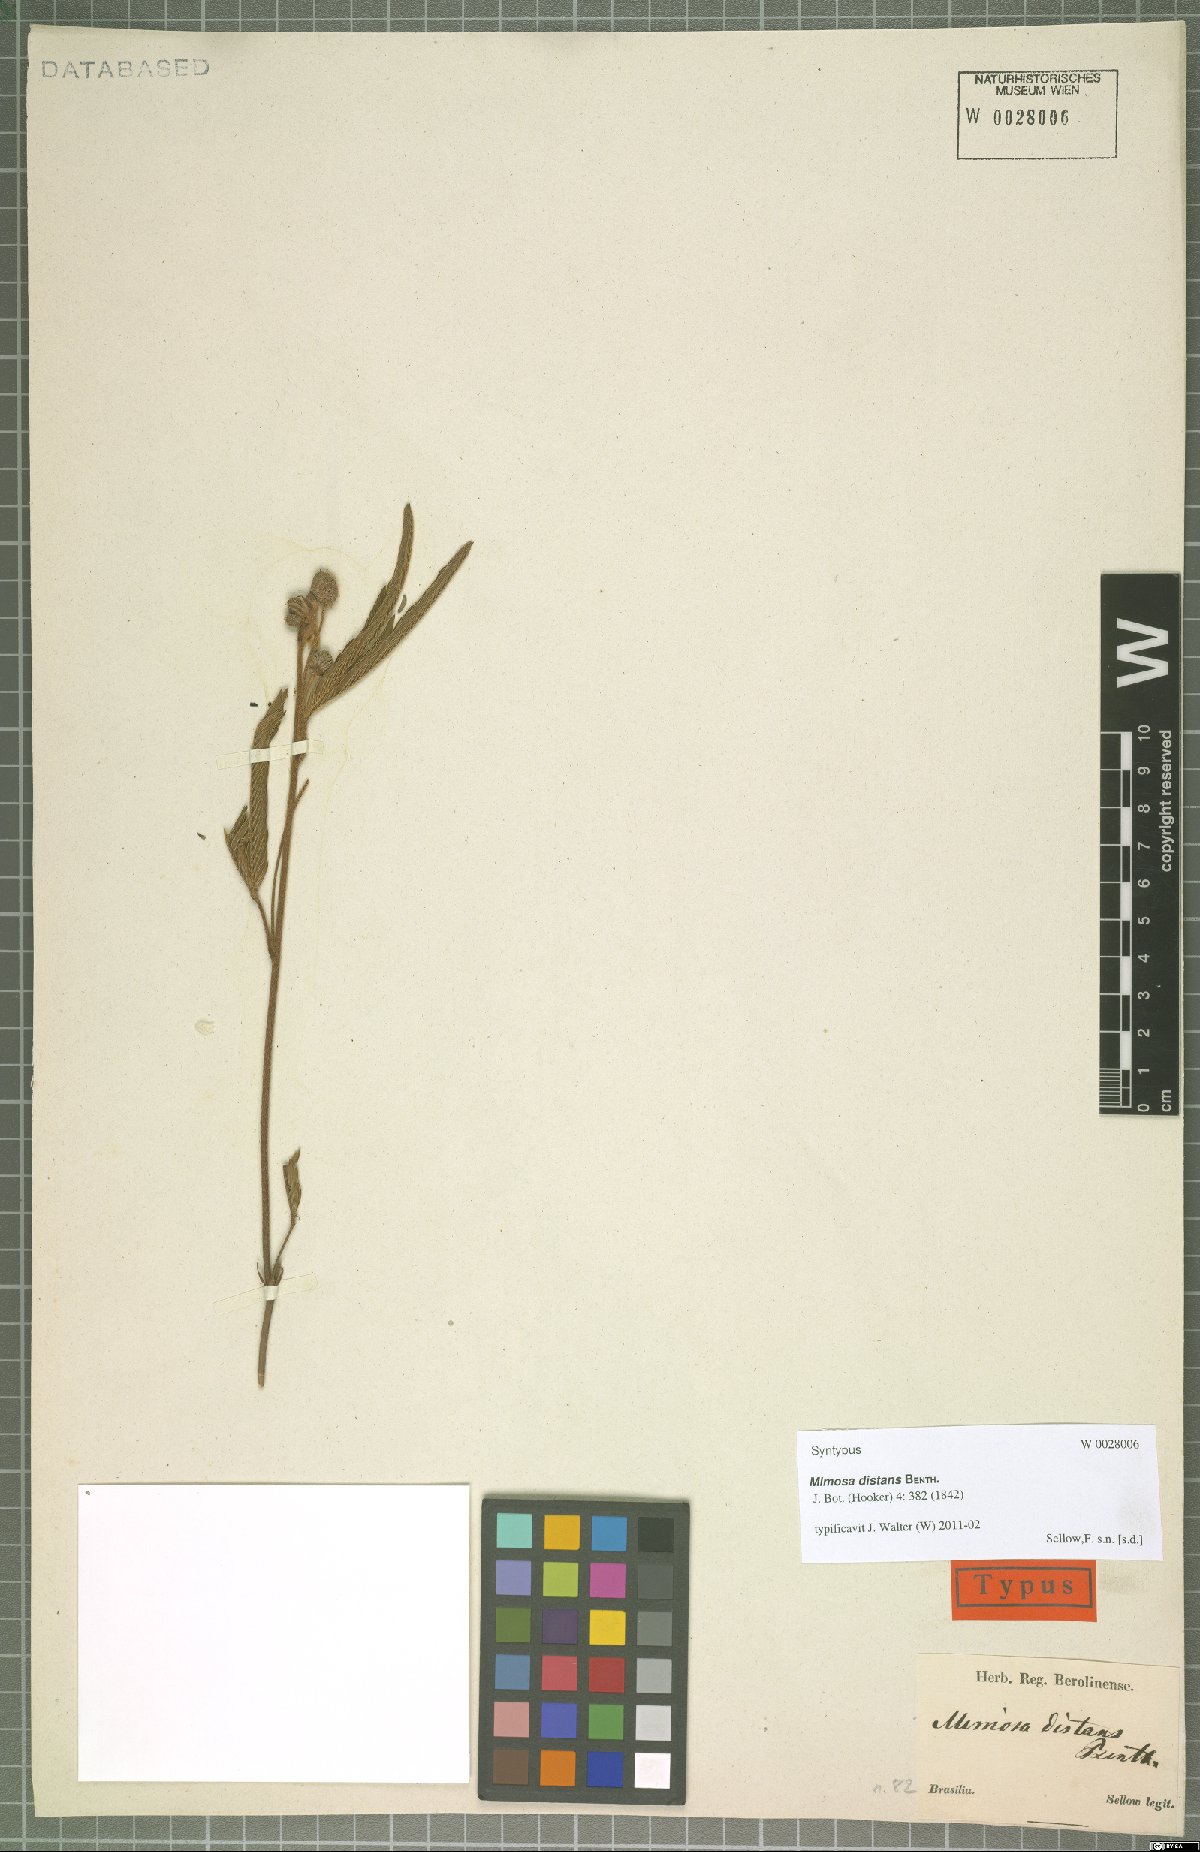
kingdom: Plantae
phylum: Tracheophyta
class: Magnoliopsida
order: Fabales
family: Fabaceae
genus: Mimosa
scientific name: Mimosa distans
